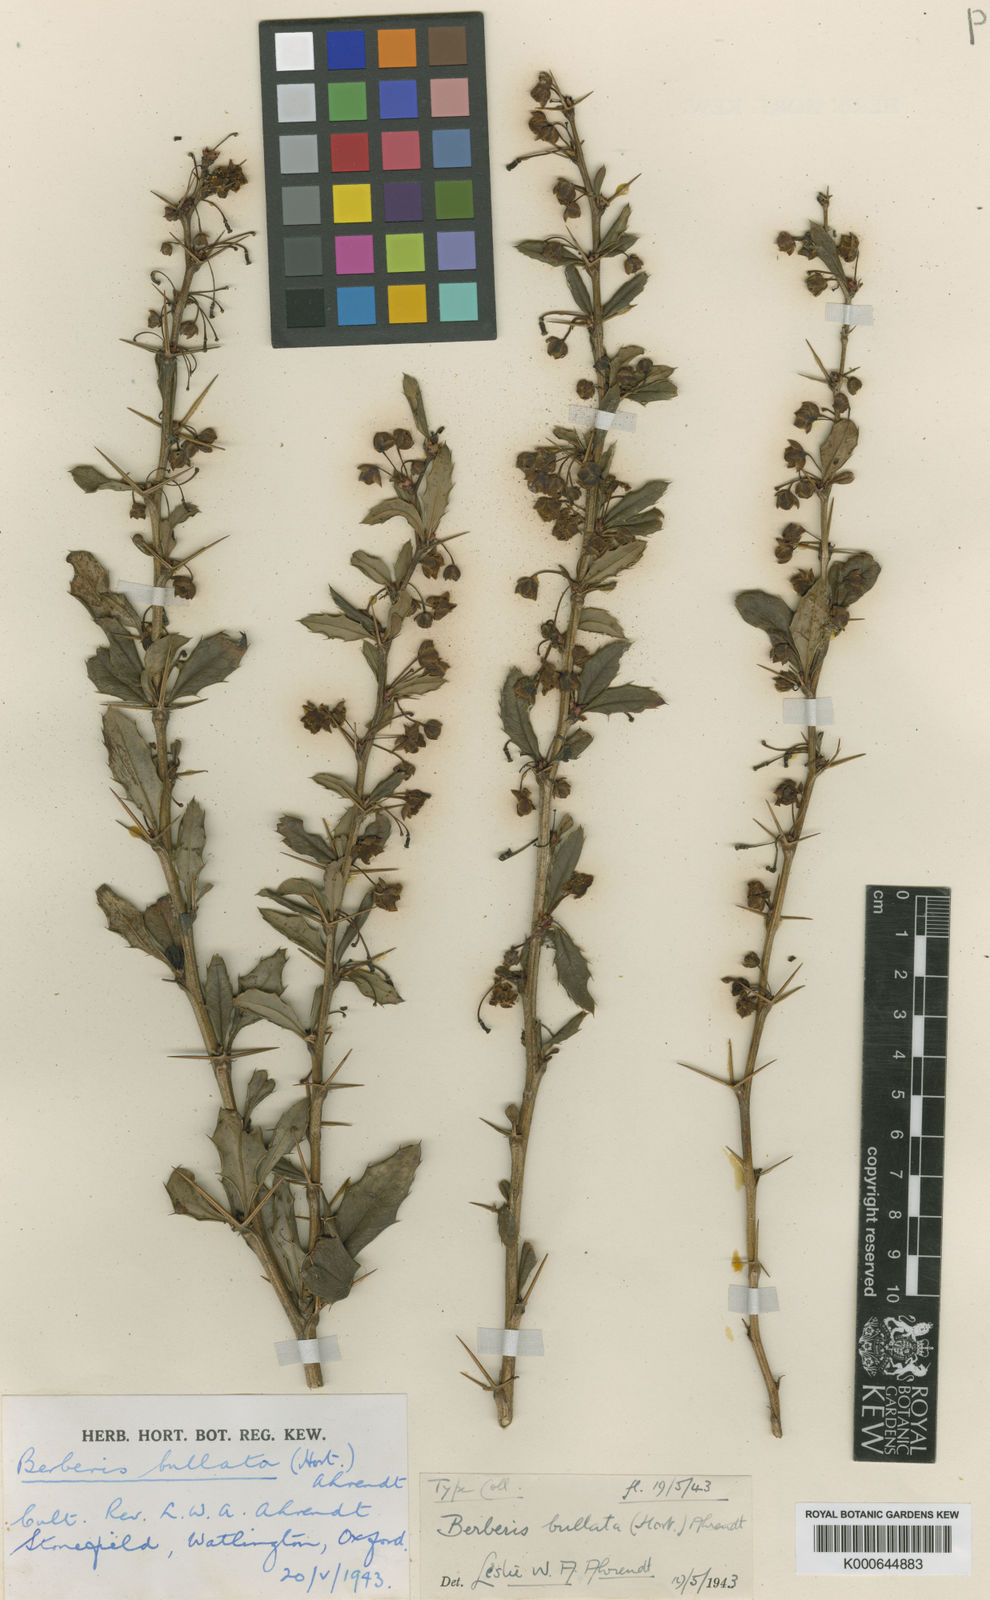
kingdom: Plantae
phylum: Tracheophyta
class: Magnoliopsida
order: Ranunculales
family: Berberidaceae
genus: Berberis
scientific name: Berberis bullata
